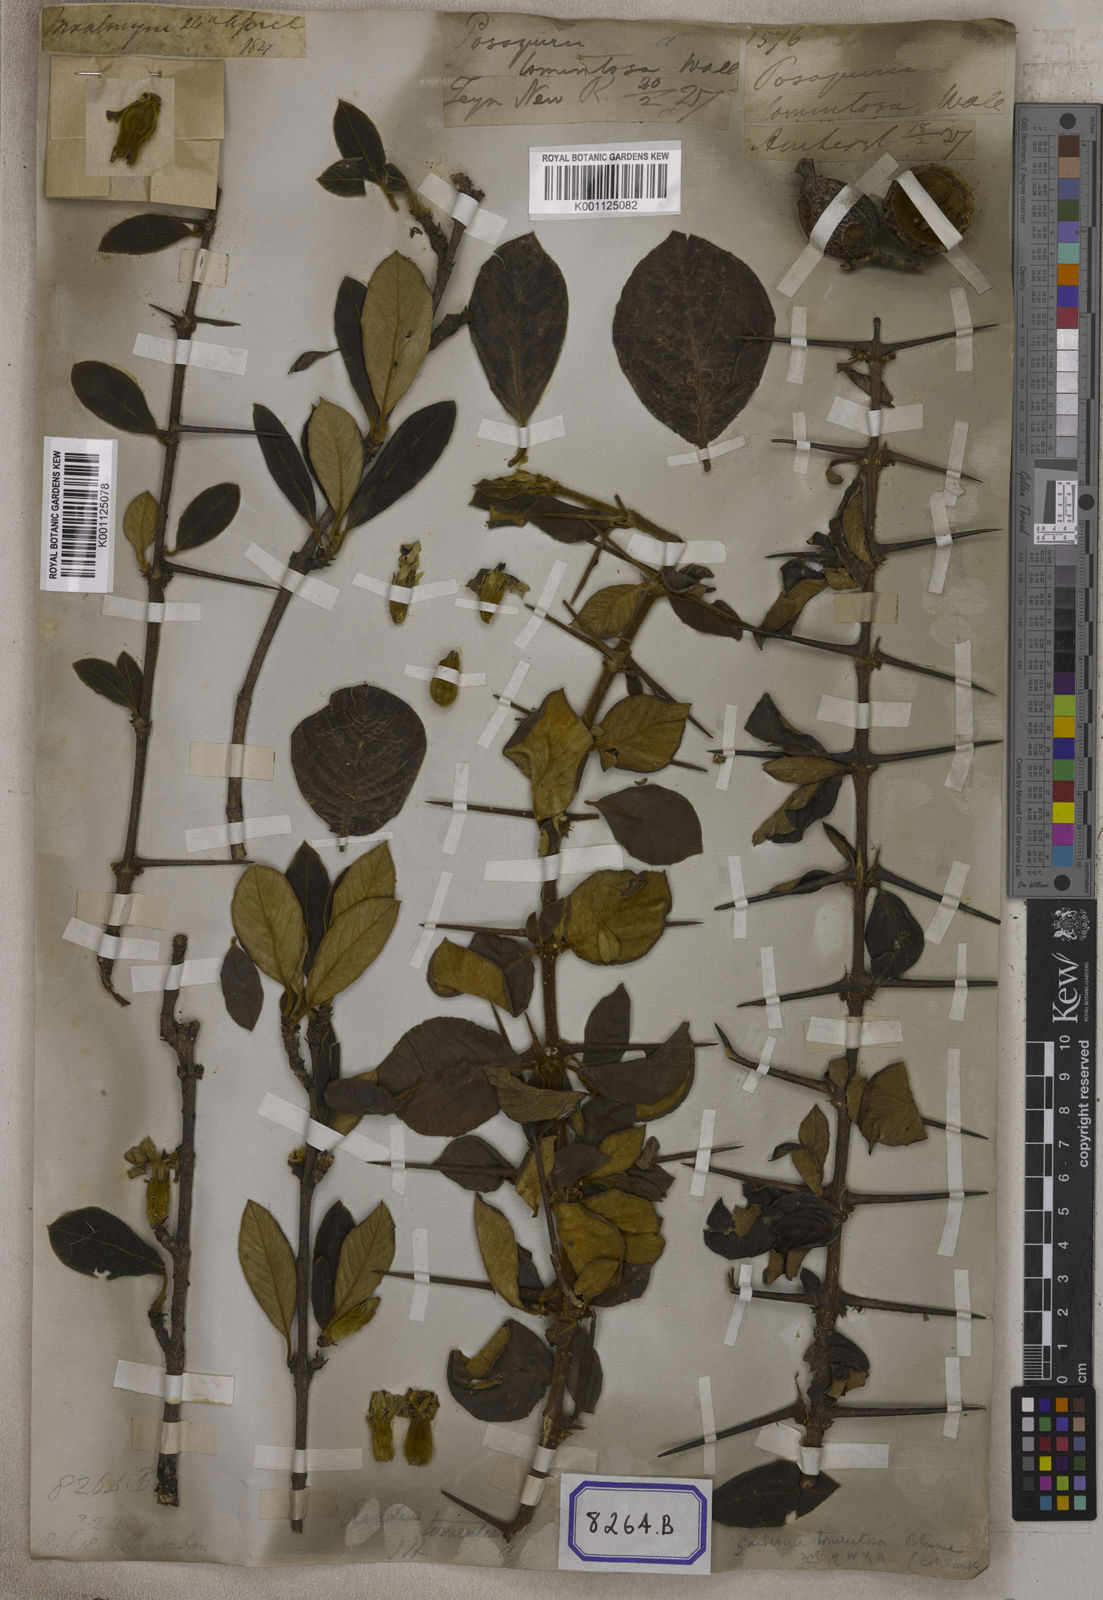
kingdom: Plantae
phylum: Tracheophyta
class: Magnoliopsida
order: Gentianales
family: Rubiaceae
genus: Gardenia
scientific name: Gardenia
